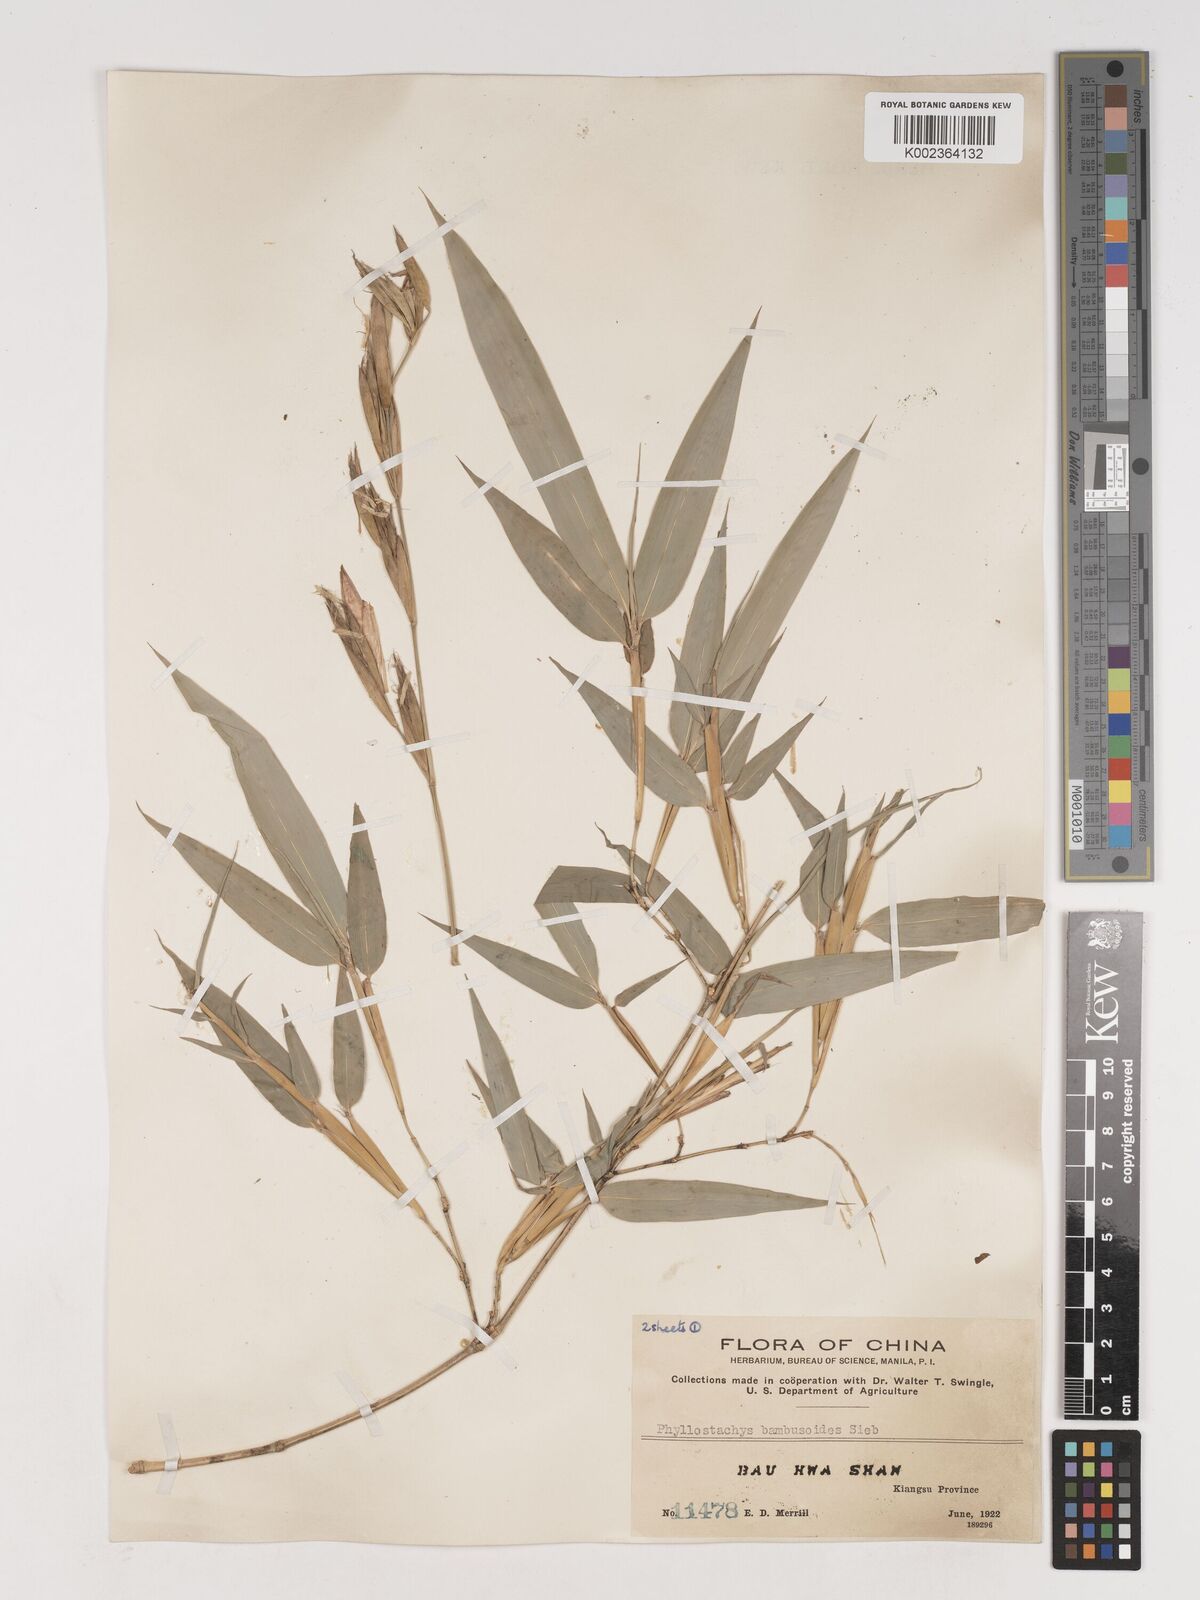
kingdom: Plantae
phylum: Tracheophyta
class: Liliopsida
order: Poales
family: Poaceae
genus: Phyllostachys
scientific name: Phyllostachys reticulata
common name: Bamboo
